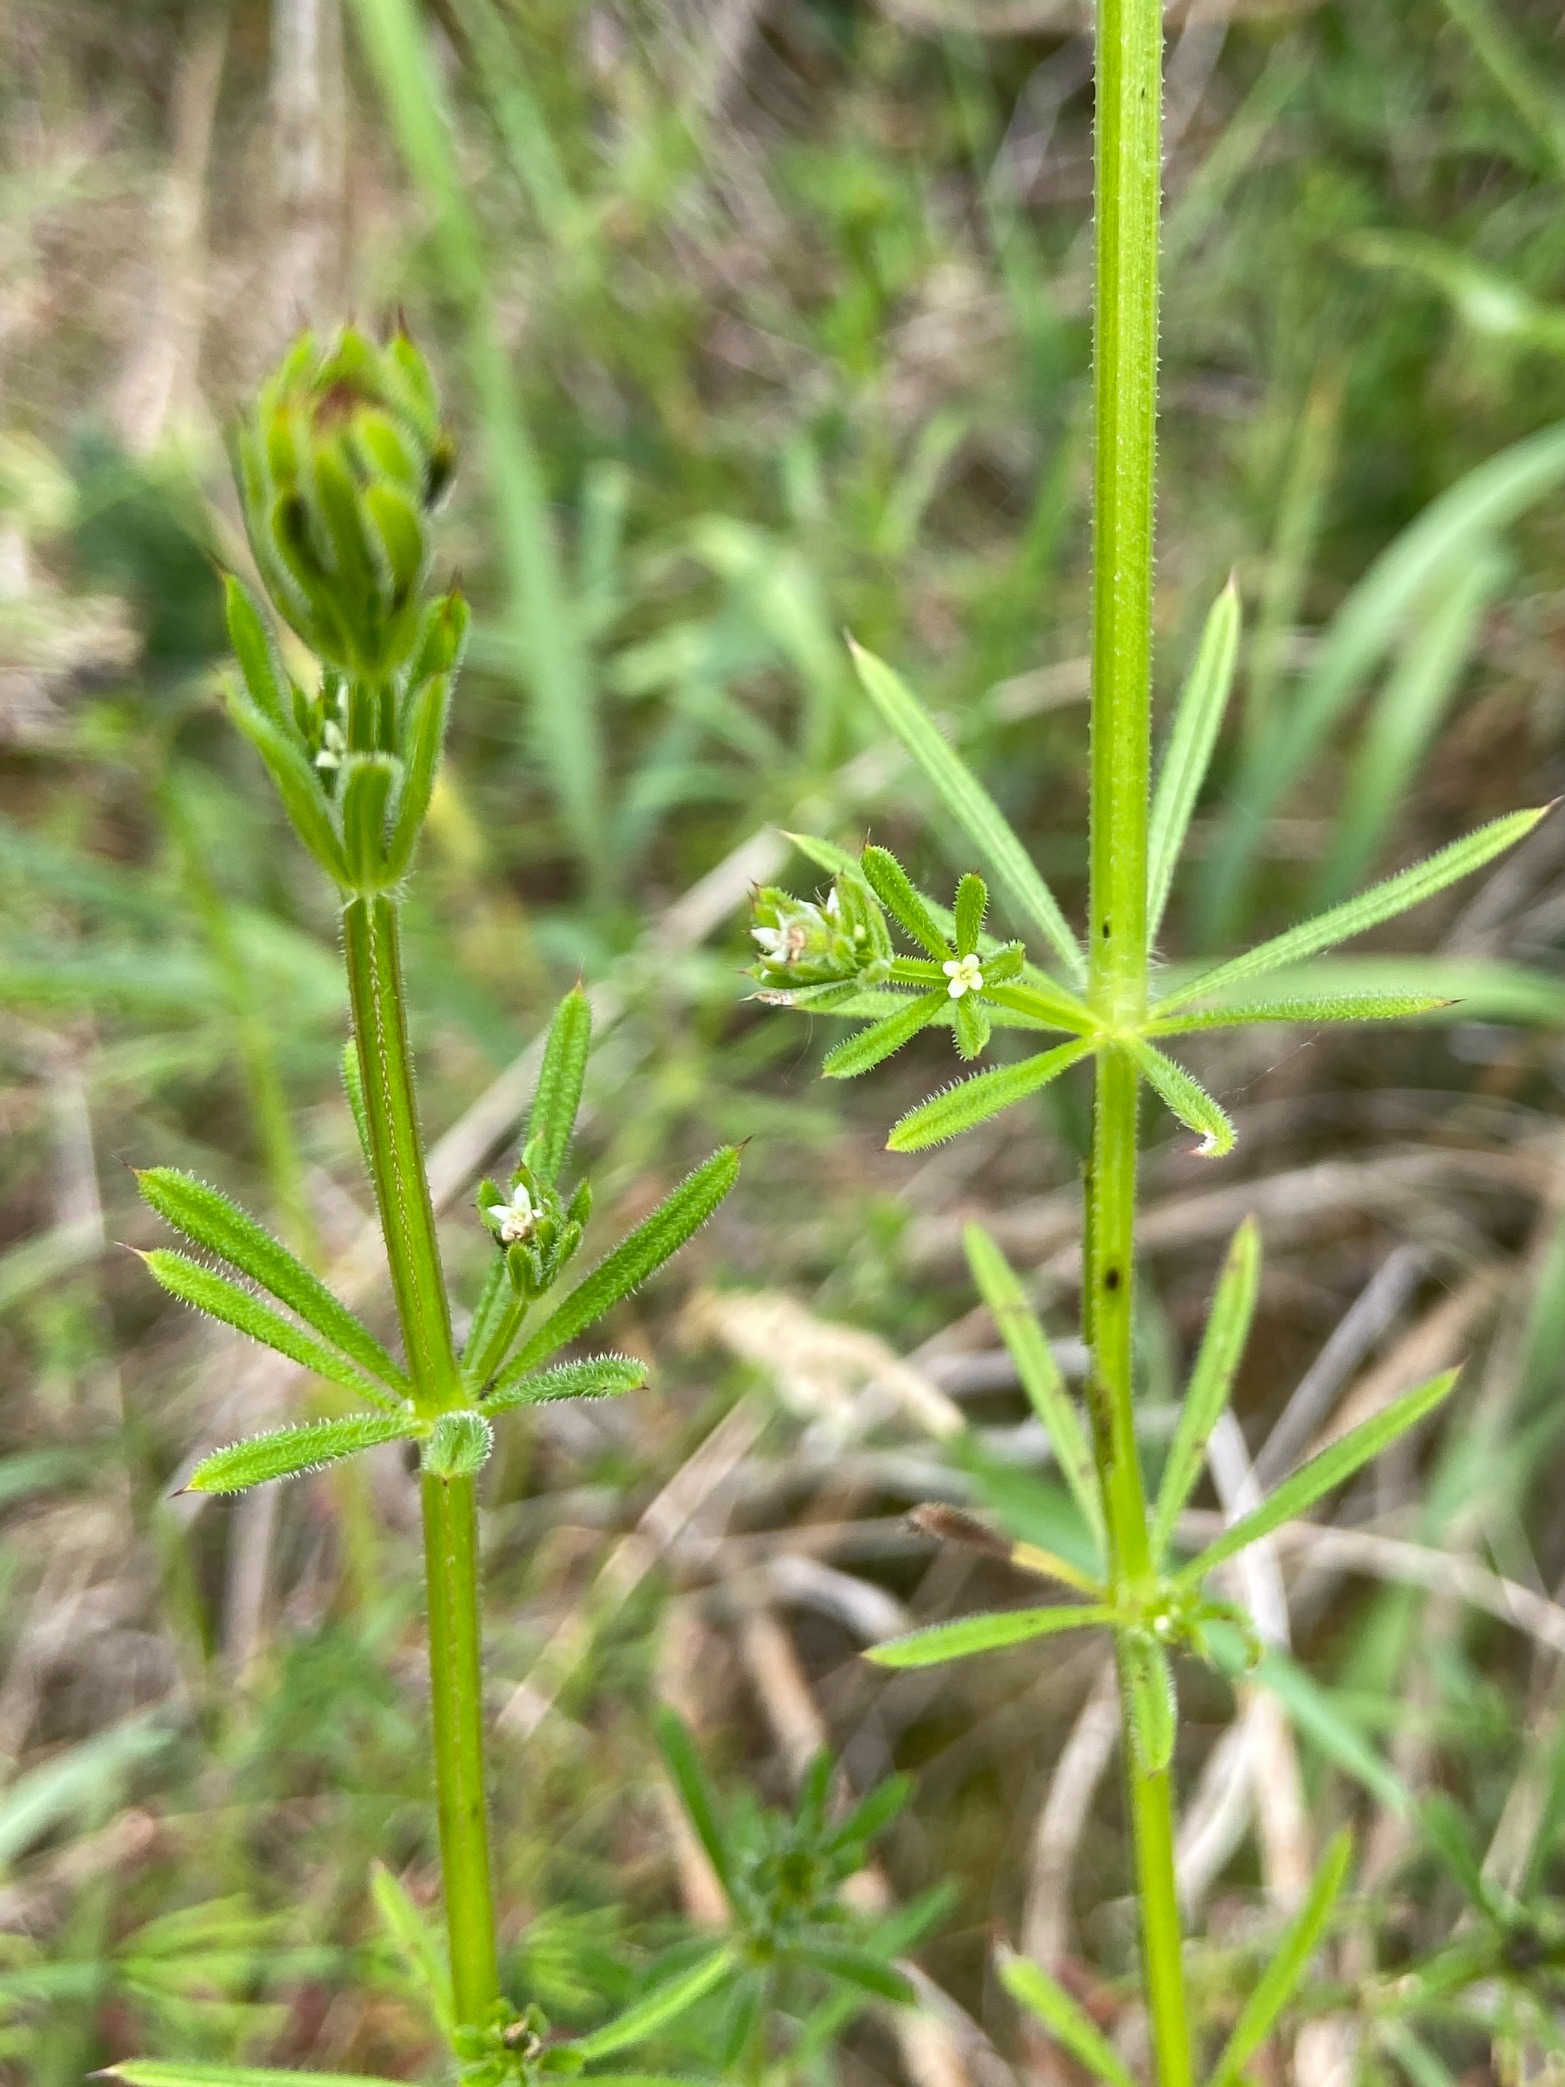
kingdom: Plantae
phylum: Tracheophyta
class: Magnoliopsida
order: Gentianales
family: Rubiaceae
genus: Galium
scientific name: Galium aparine
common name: Burre-snerre
